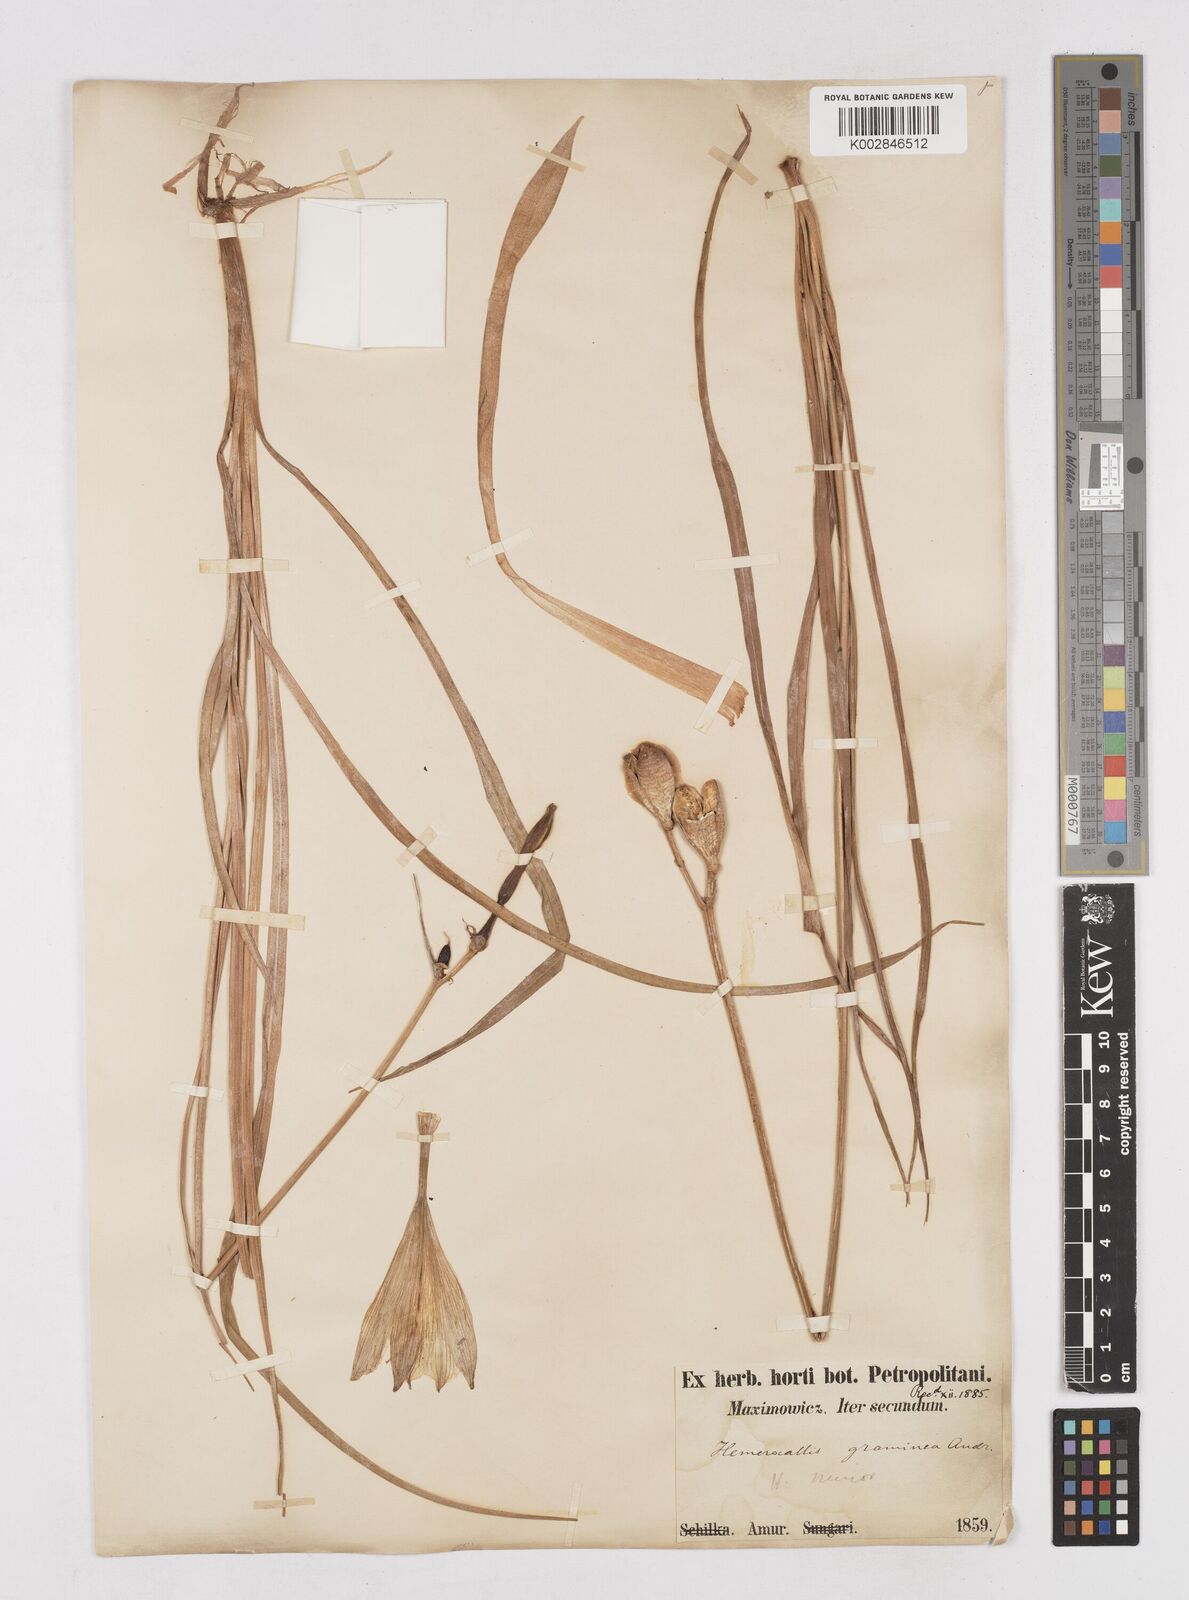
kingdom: Plantae
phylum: Tracheophyta
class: Liliopsida
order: Asparagales
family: Asphodelaceae
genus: Hemerocallis
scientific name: Hemerocallis minor
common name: Small daylily
